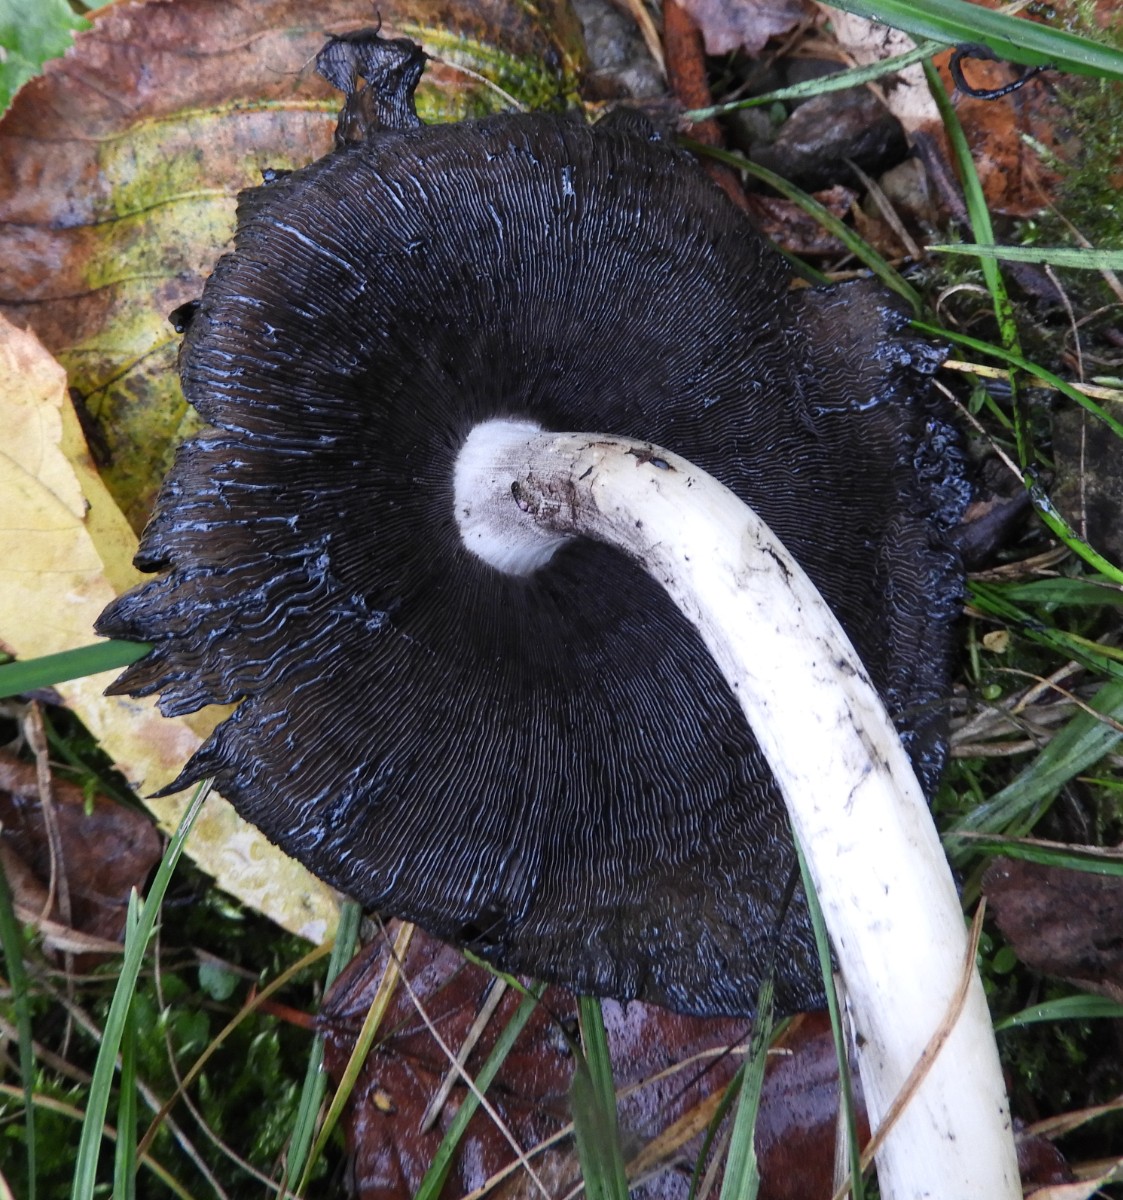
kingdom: Fungi
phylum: Basidiomycota
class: Agaricomycetes
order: Agaricales
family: Psathyrellaceae
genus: Coprinopsis
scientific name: Coprinopsis atramentaria
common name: almindelig blækhat
